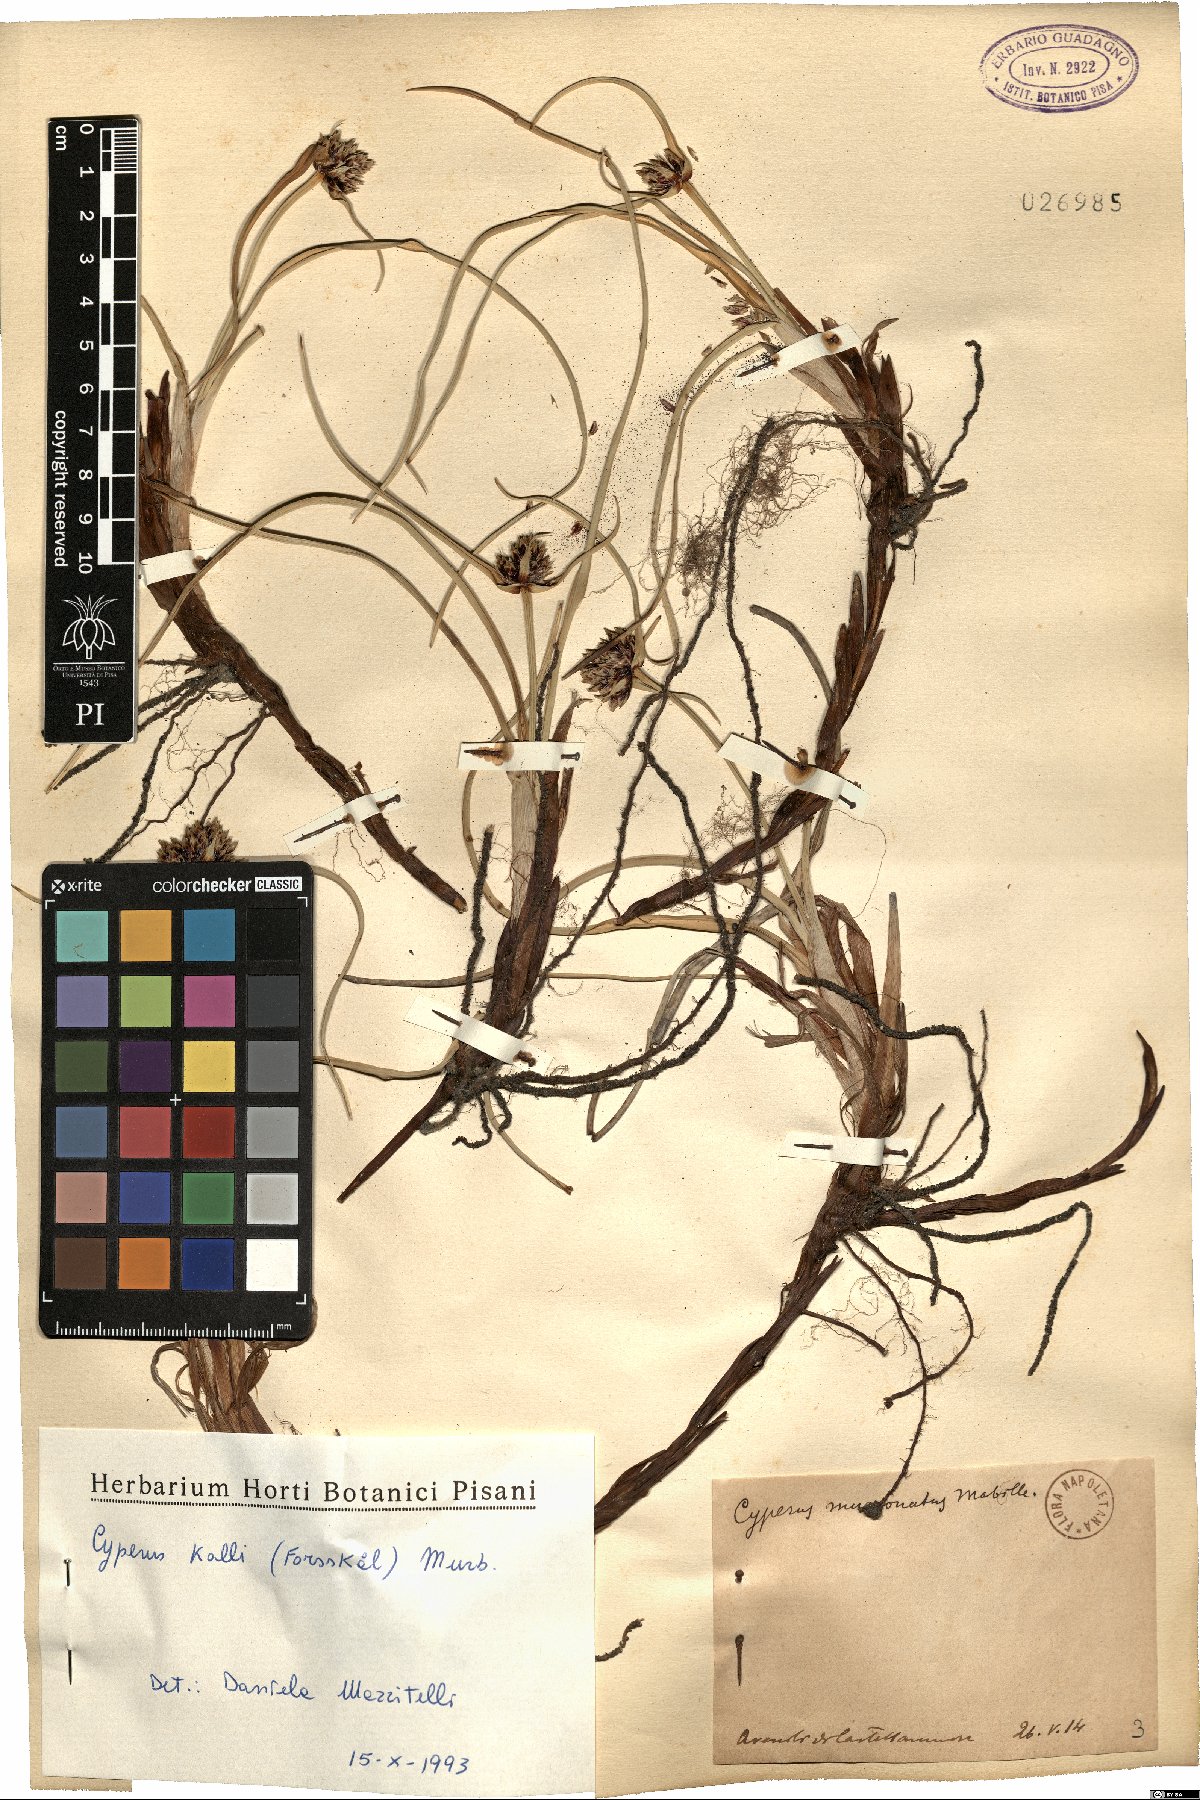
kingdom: Plantae
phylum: Tracheophyta
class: Liliopsida
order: Poales
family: Cyperaceae
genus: Cyperus
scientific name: Cyperus capitatus
